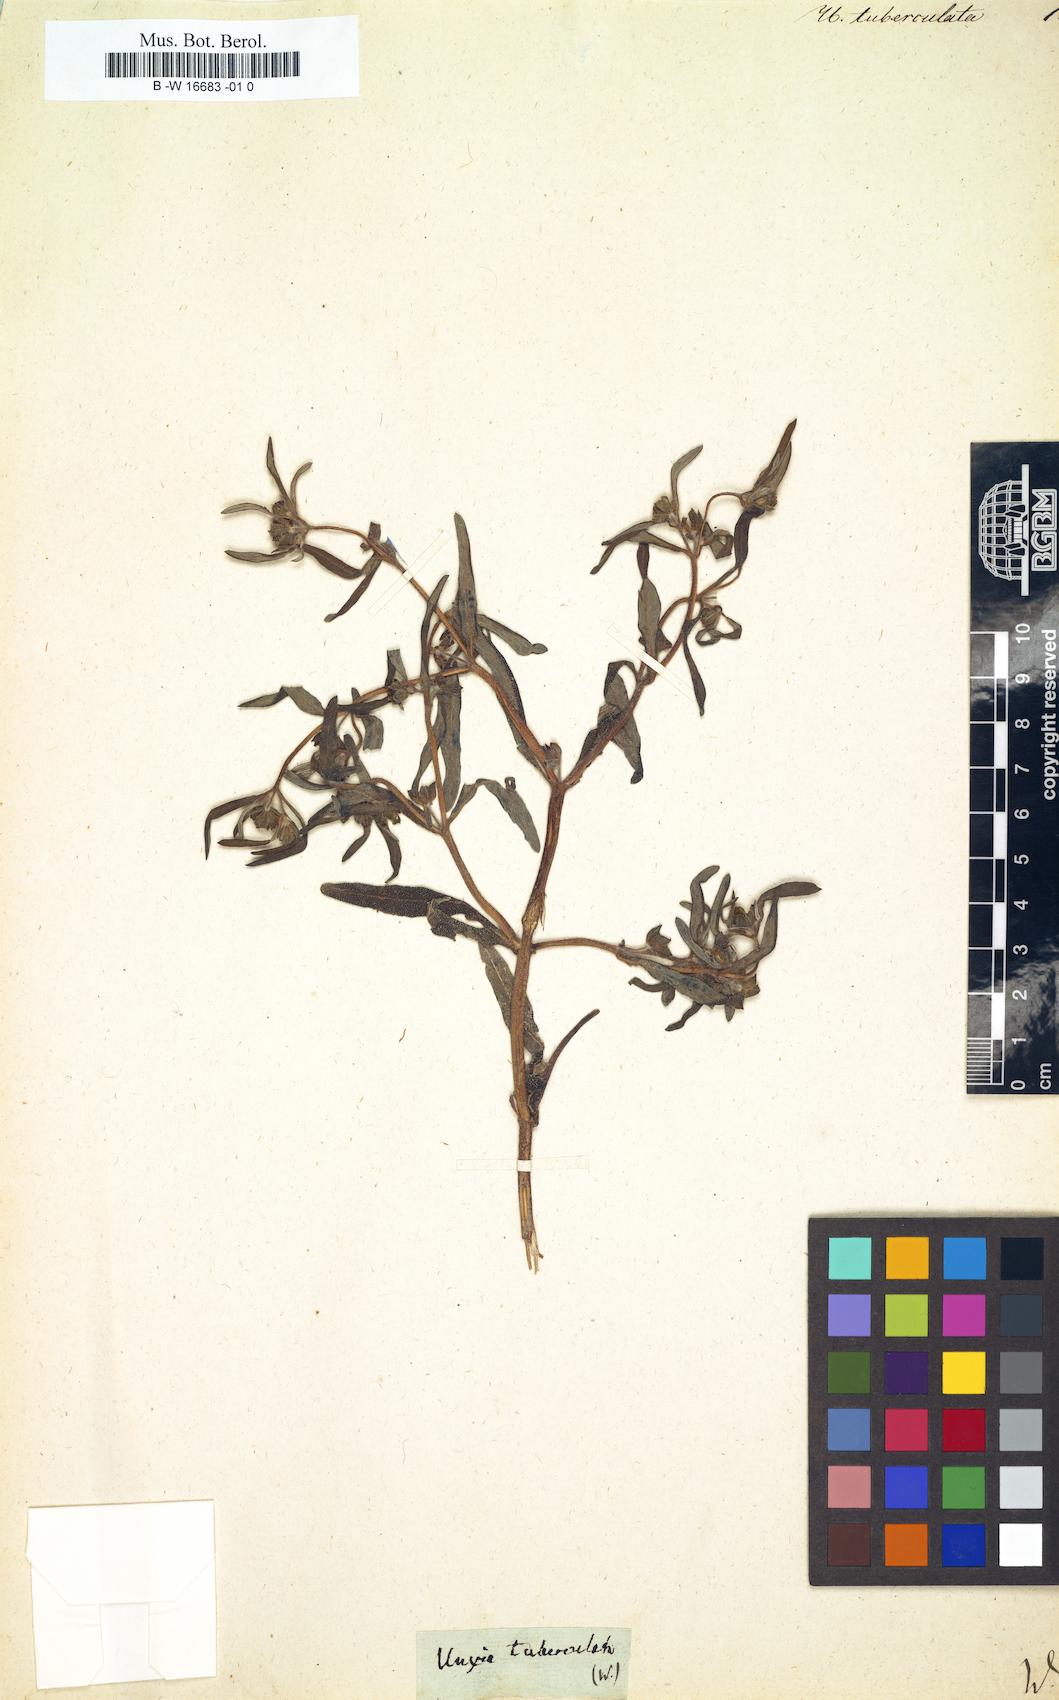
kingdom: Plantae
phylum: Tracheophyta
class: Magnoliopsida
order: Asterales
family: Asteraceae
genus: Unxia
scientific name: Unxia
